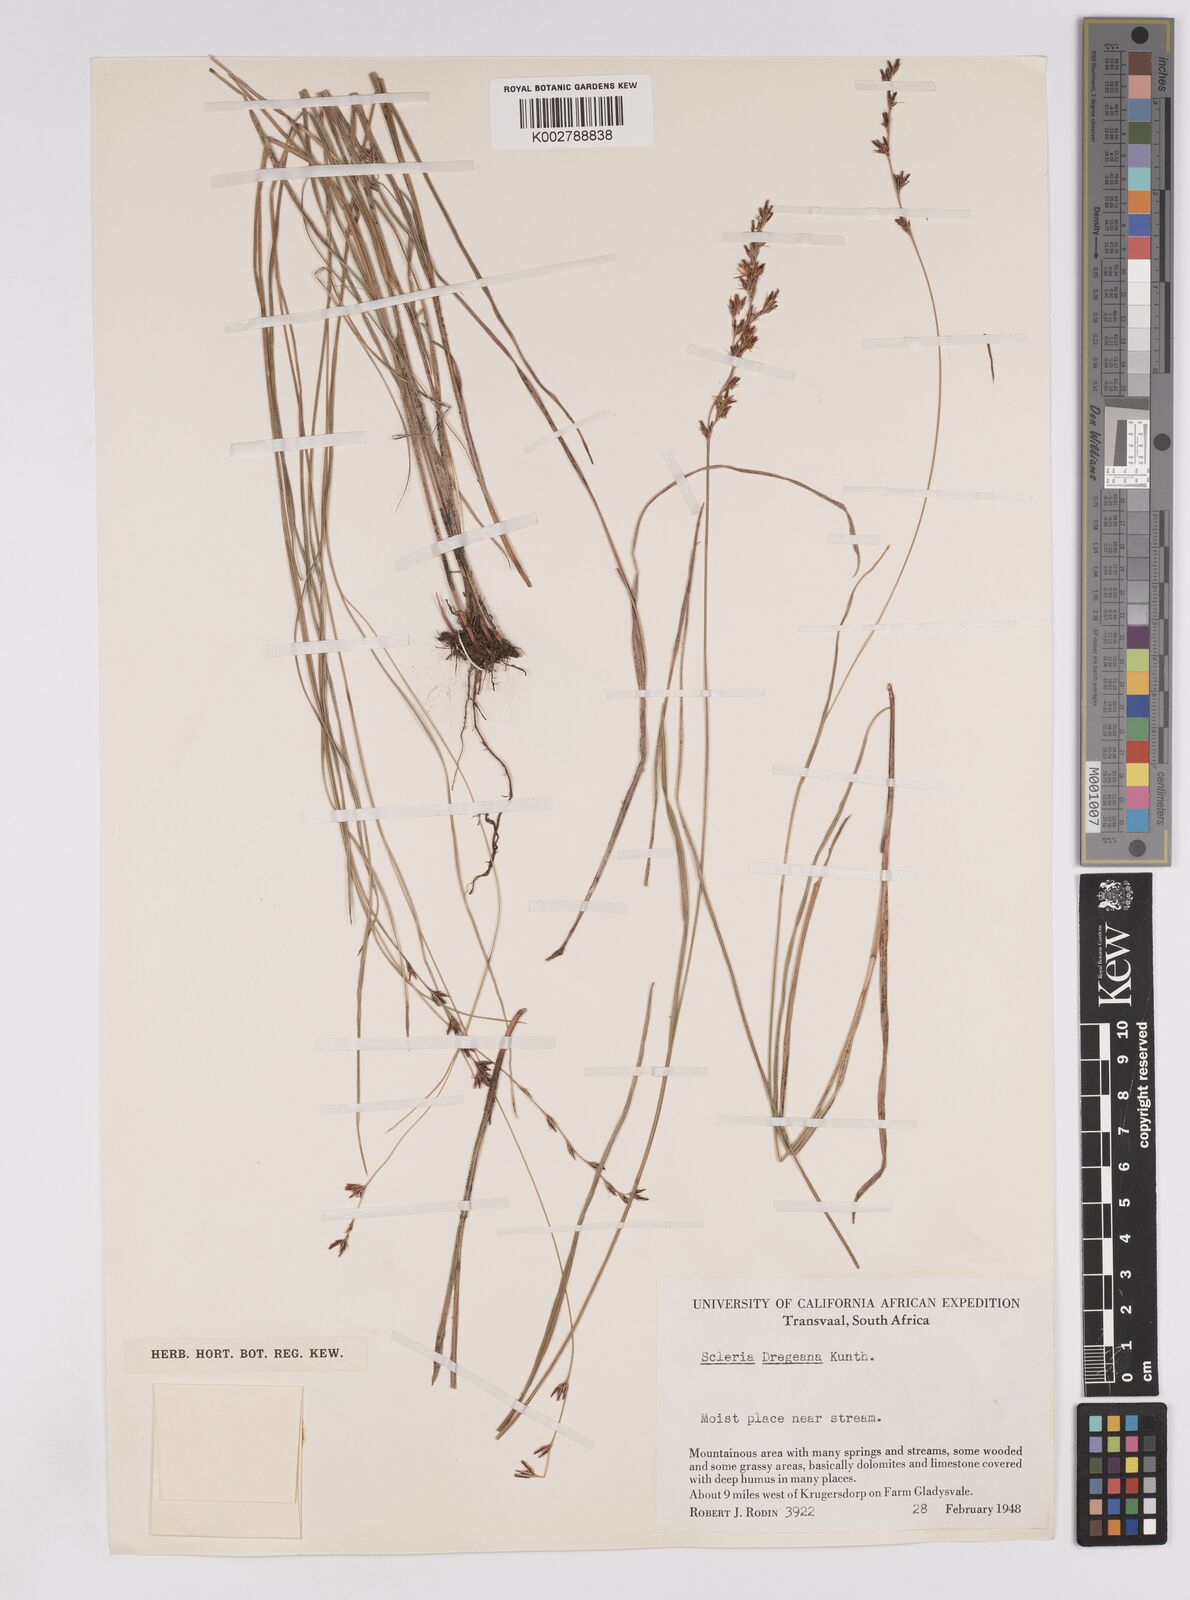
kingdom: Plantae
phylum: Tracheophyta
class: Liliopsida
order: Poales
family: Cyperaceae
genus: Scleria
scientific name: Scleria dregeana
